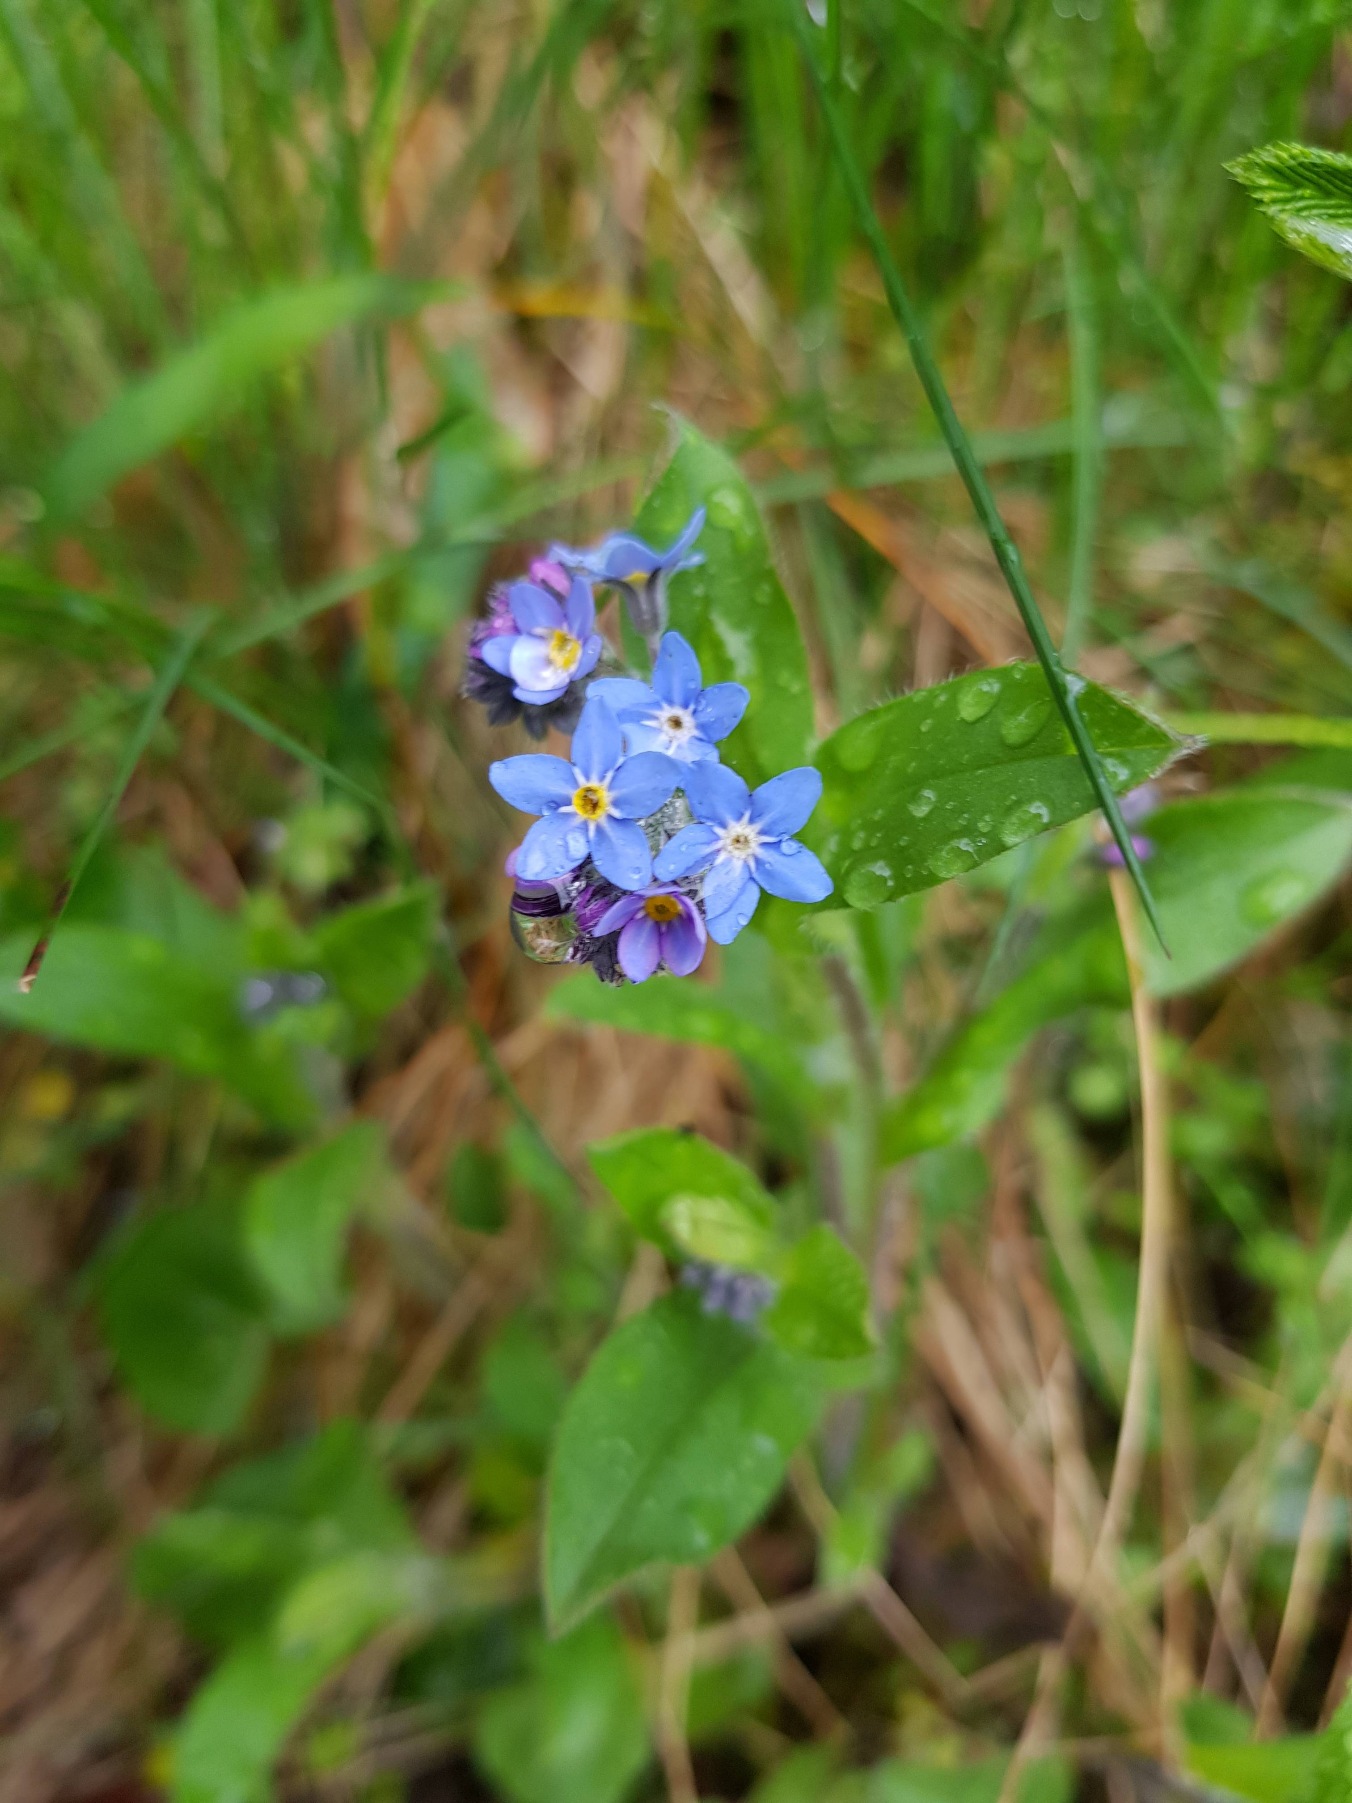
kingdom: Plantae
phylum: Tracheophyta
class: Magnoliopsida
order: Boraginales
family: Boraginaceae
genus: Myosotis
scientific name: Myosotis sylvatica
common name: Skov-forglemmigej
